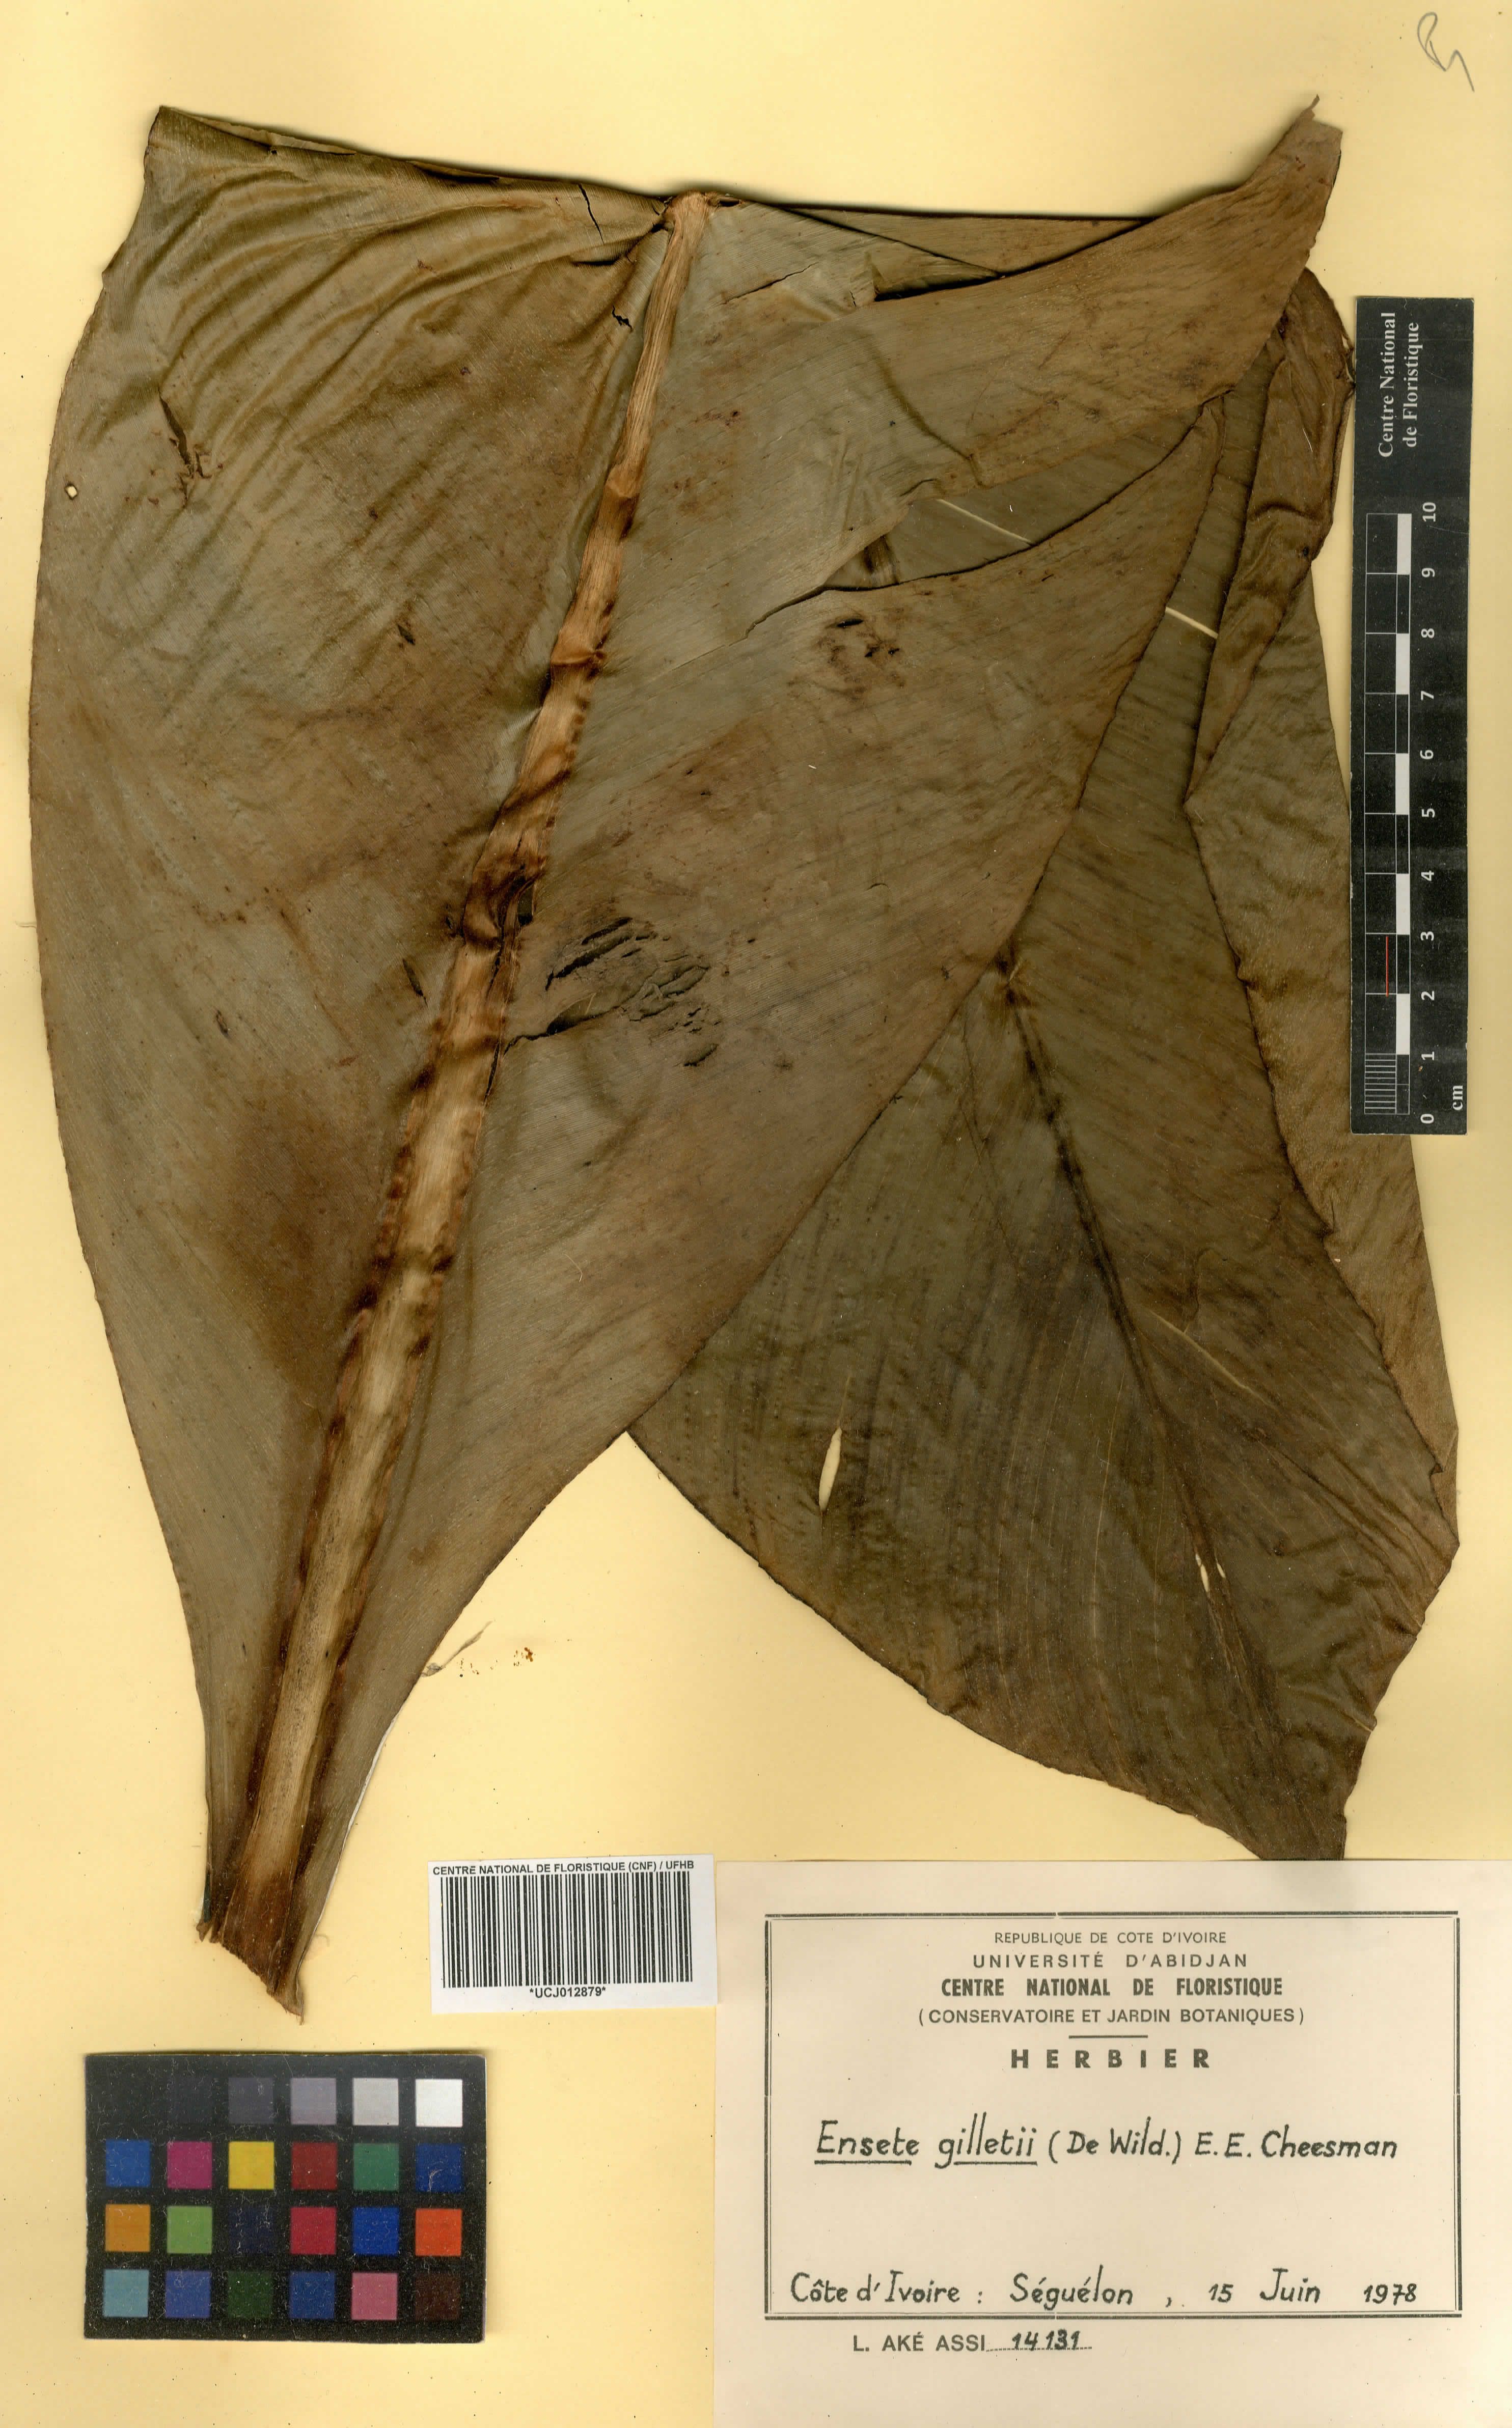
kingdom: Plantae
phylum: Tracheophyta
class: Liliopsida
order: Zingiberales
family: Musaceae
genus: Ensete
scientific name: Ensete livingstonianum
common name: Livingston's banana
